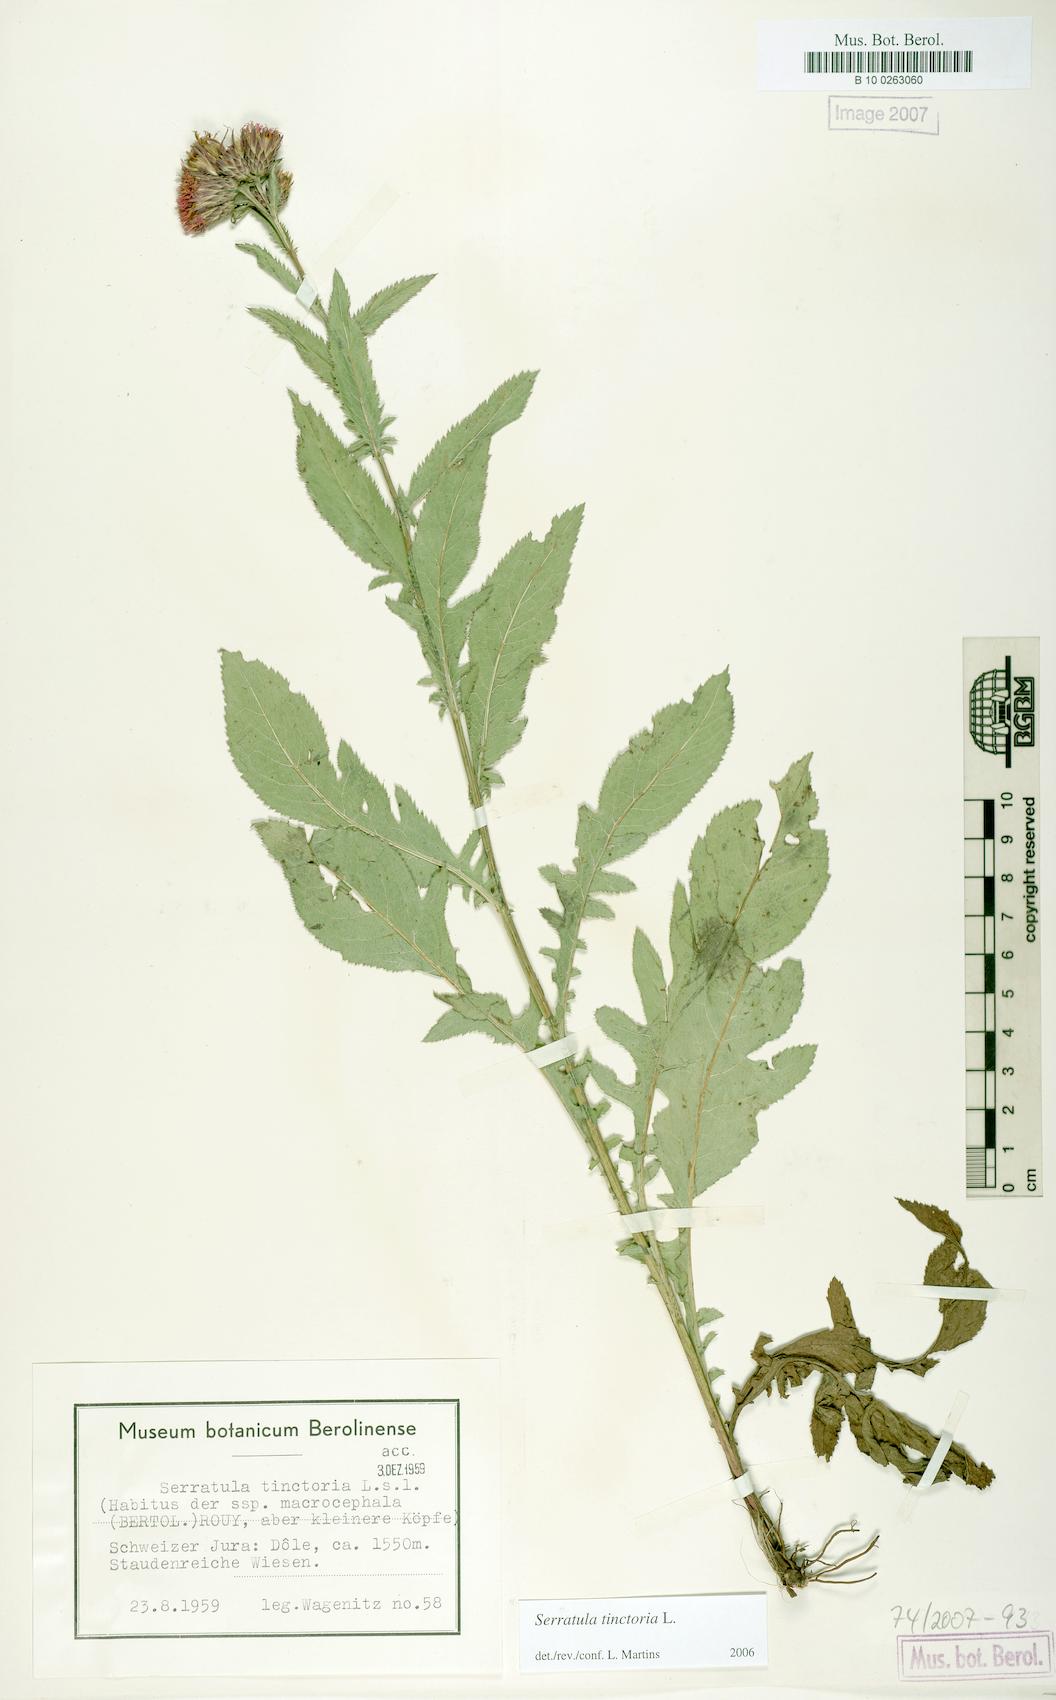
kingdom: Plantae
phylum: Tracheophyta
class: Magnoliopsida
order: Asterales
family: Asteraceae
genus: Serratula
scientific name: Serratula tinctoria
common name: Saw-wort
